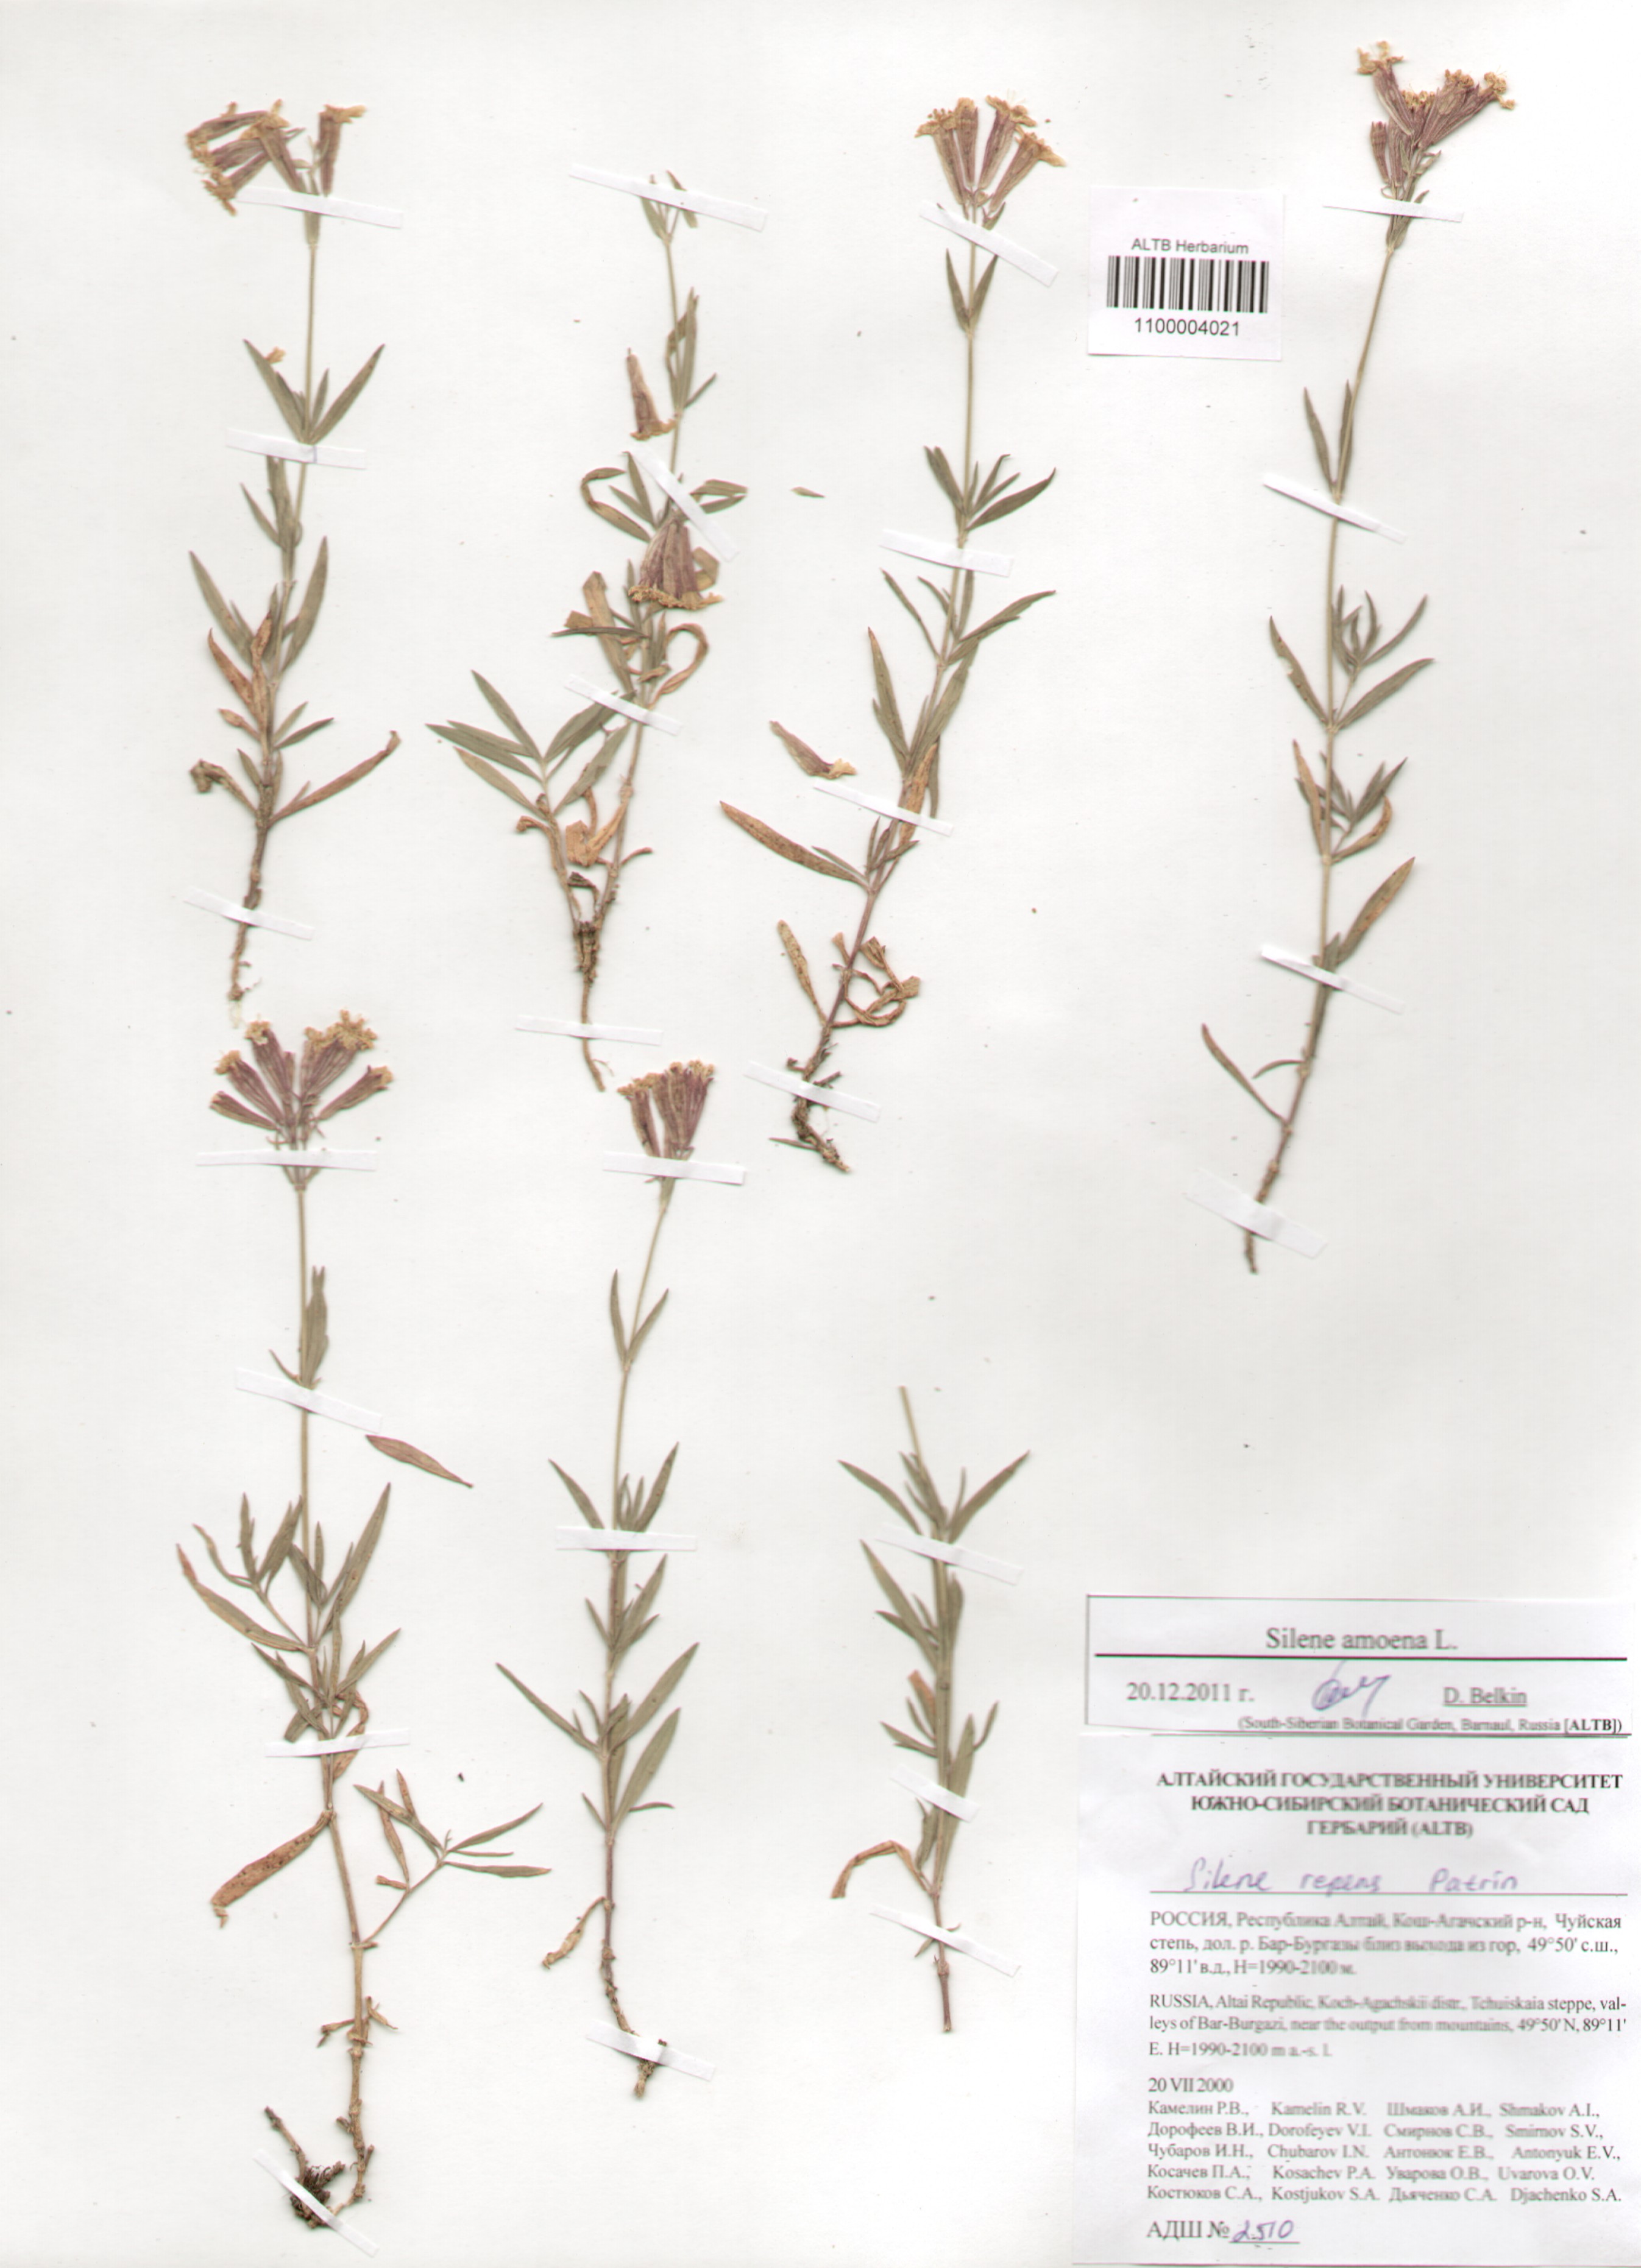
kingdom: Plantae
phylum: Tracheophyta
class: Magnoliopsida
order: Caryophyllales
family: Caryophyllaceae
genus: Silene
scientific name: Silene amoena
